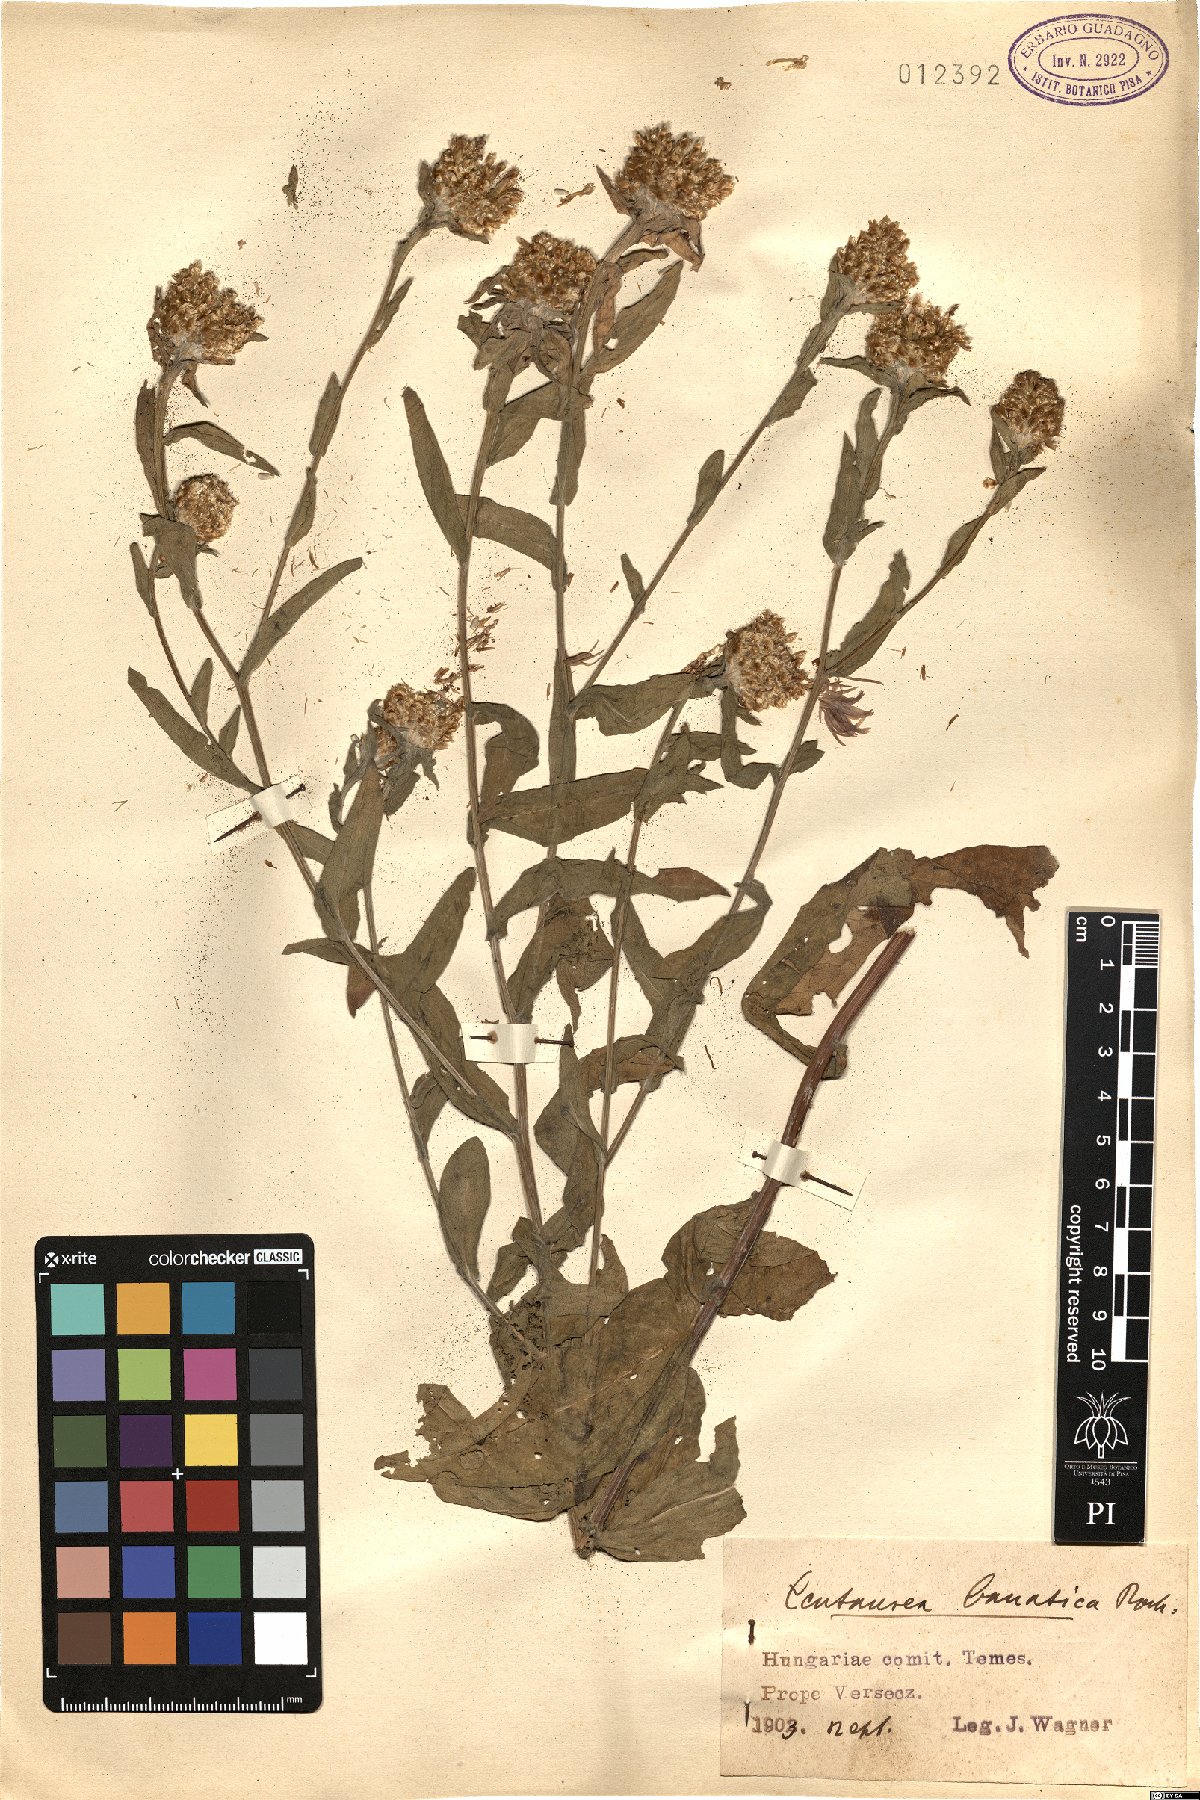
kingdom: Plantae
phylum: Tracheophyta
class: Magnoliopsida
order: Asterales
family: Asteraceae
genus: Centaurea
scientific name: Centaurea banatica
